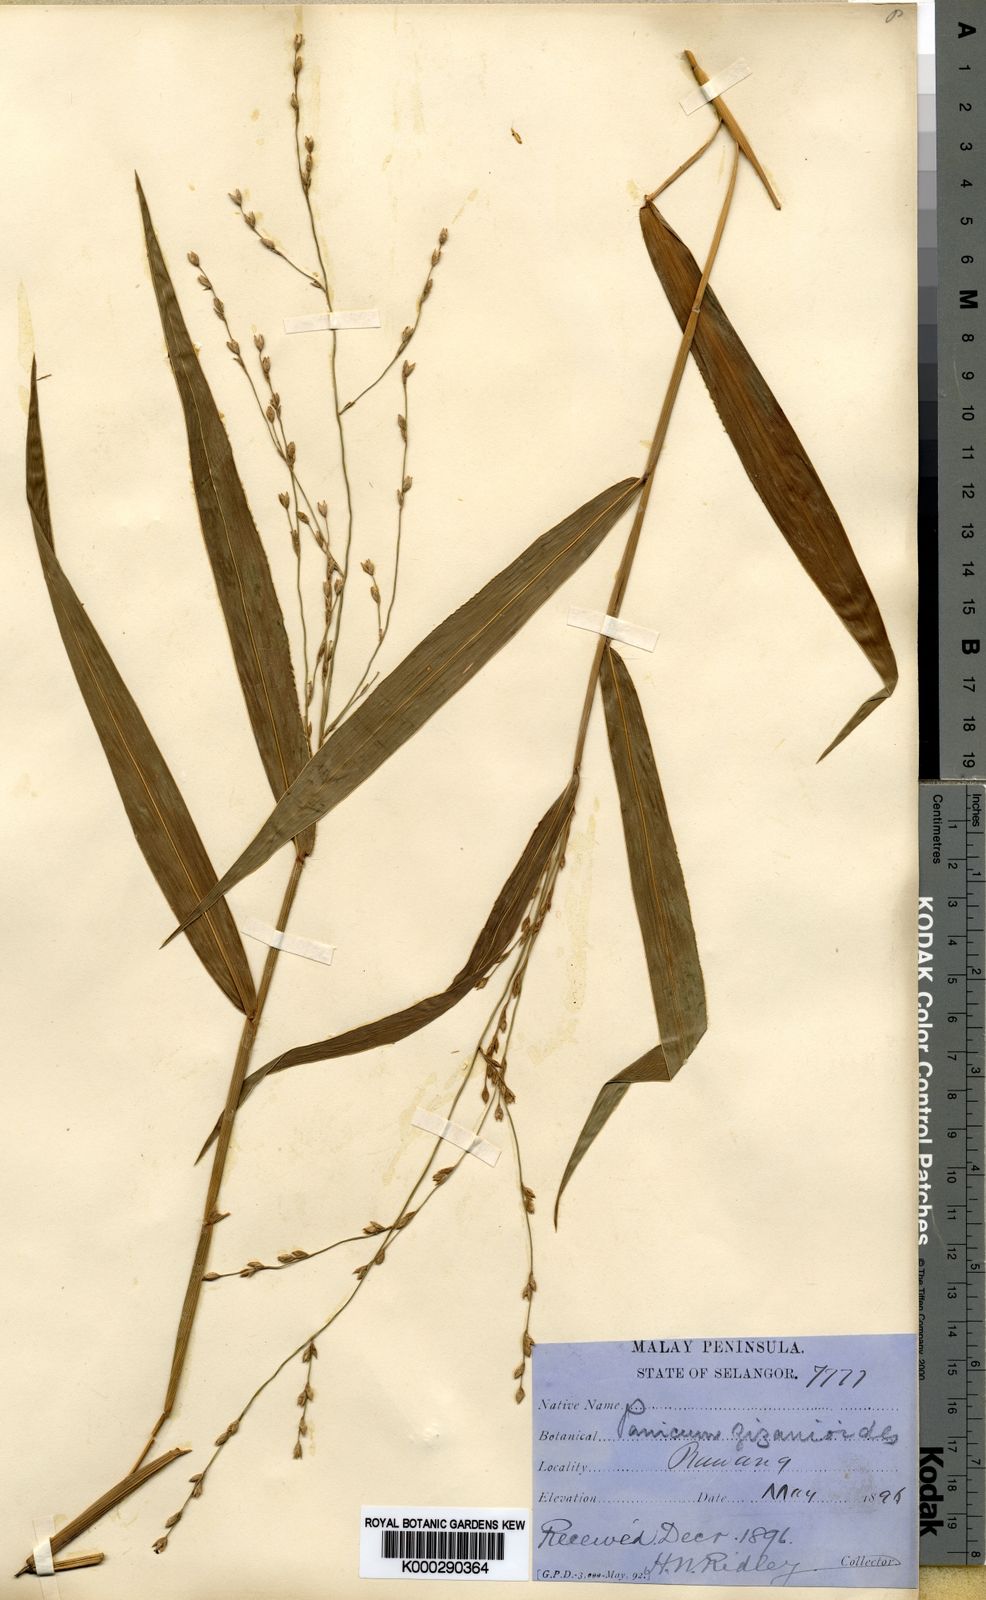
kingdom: Plantae
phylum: Tracheophyta
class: Liliopsida
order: Poales
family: Poaceae
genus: Acroceras
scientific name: Acroceras tonkinense
